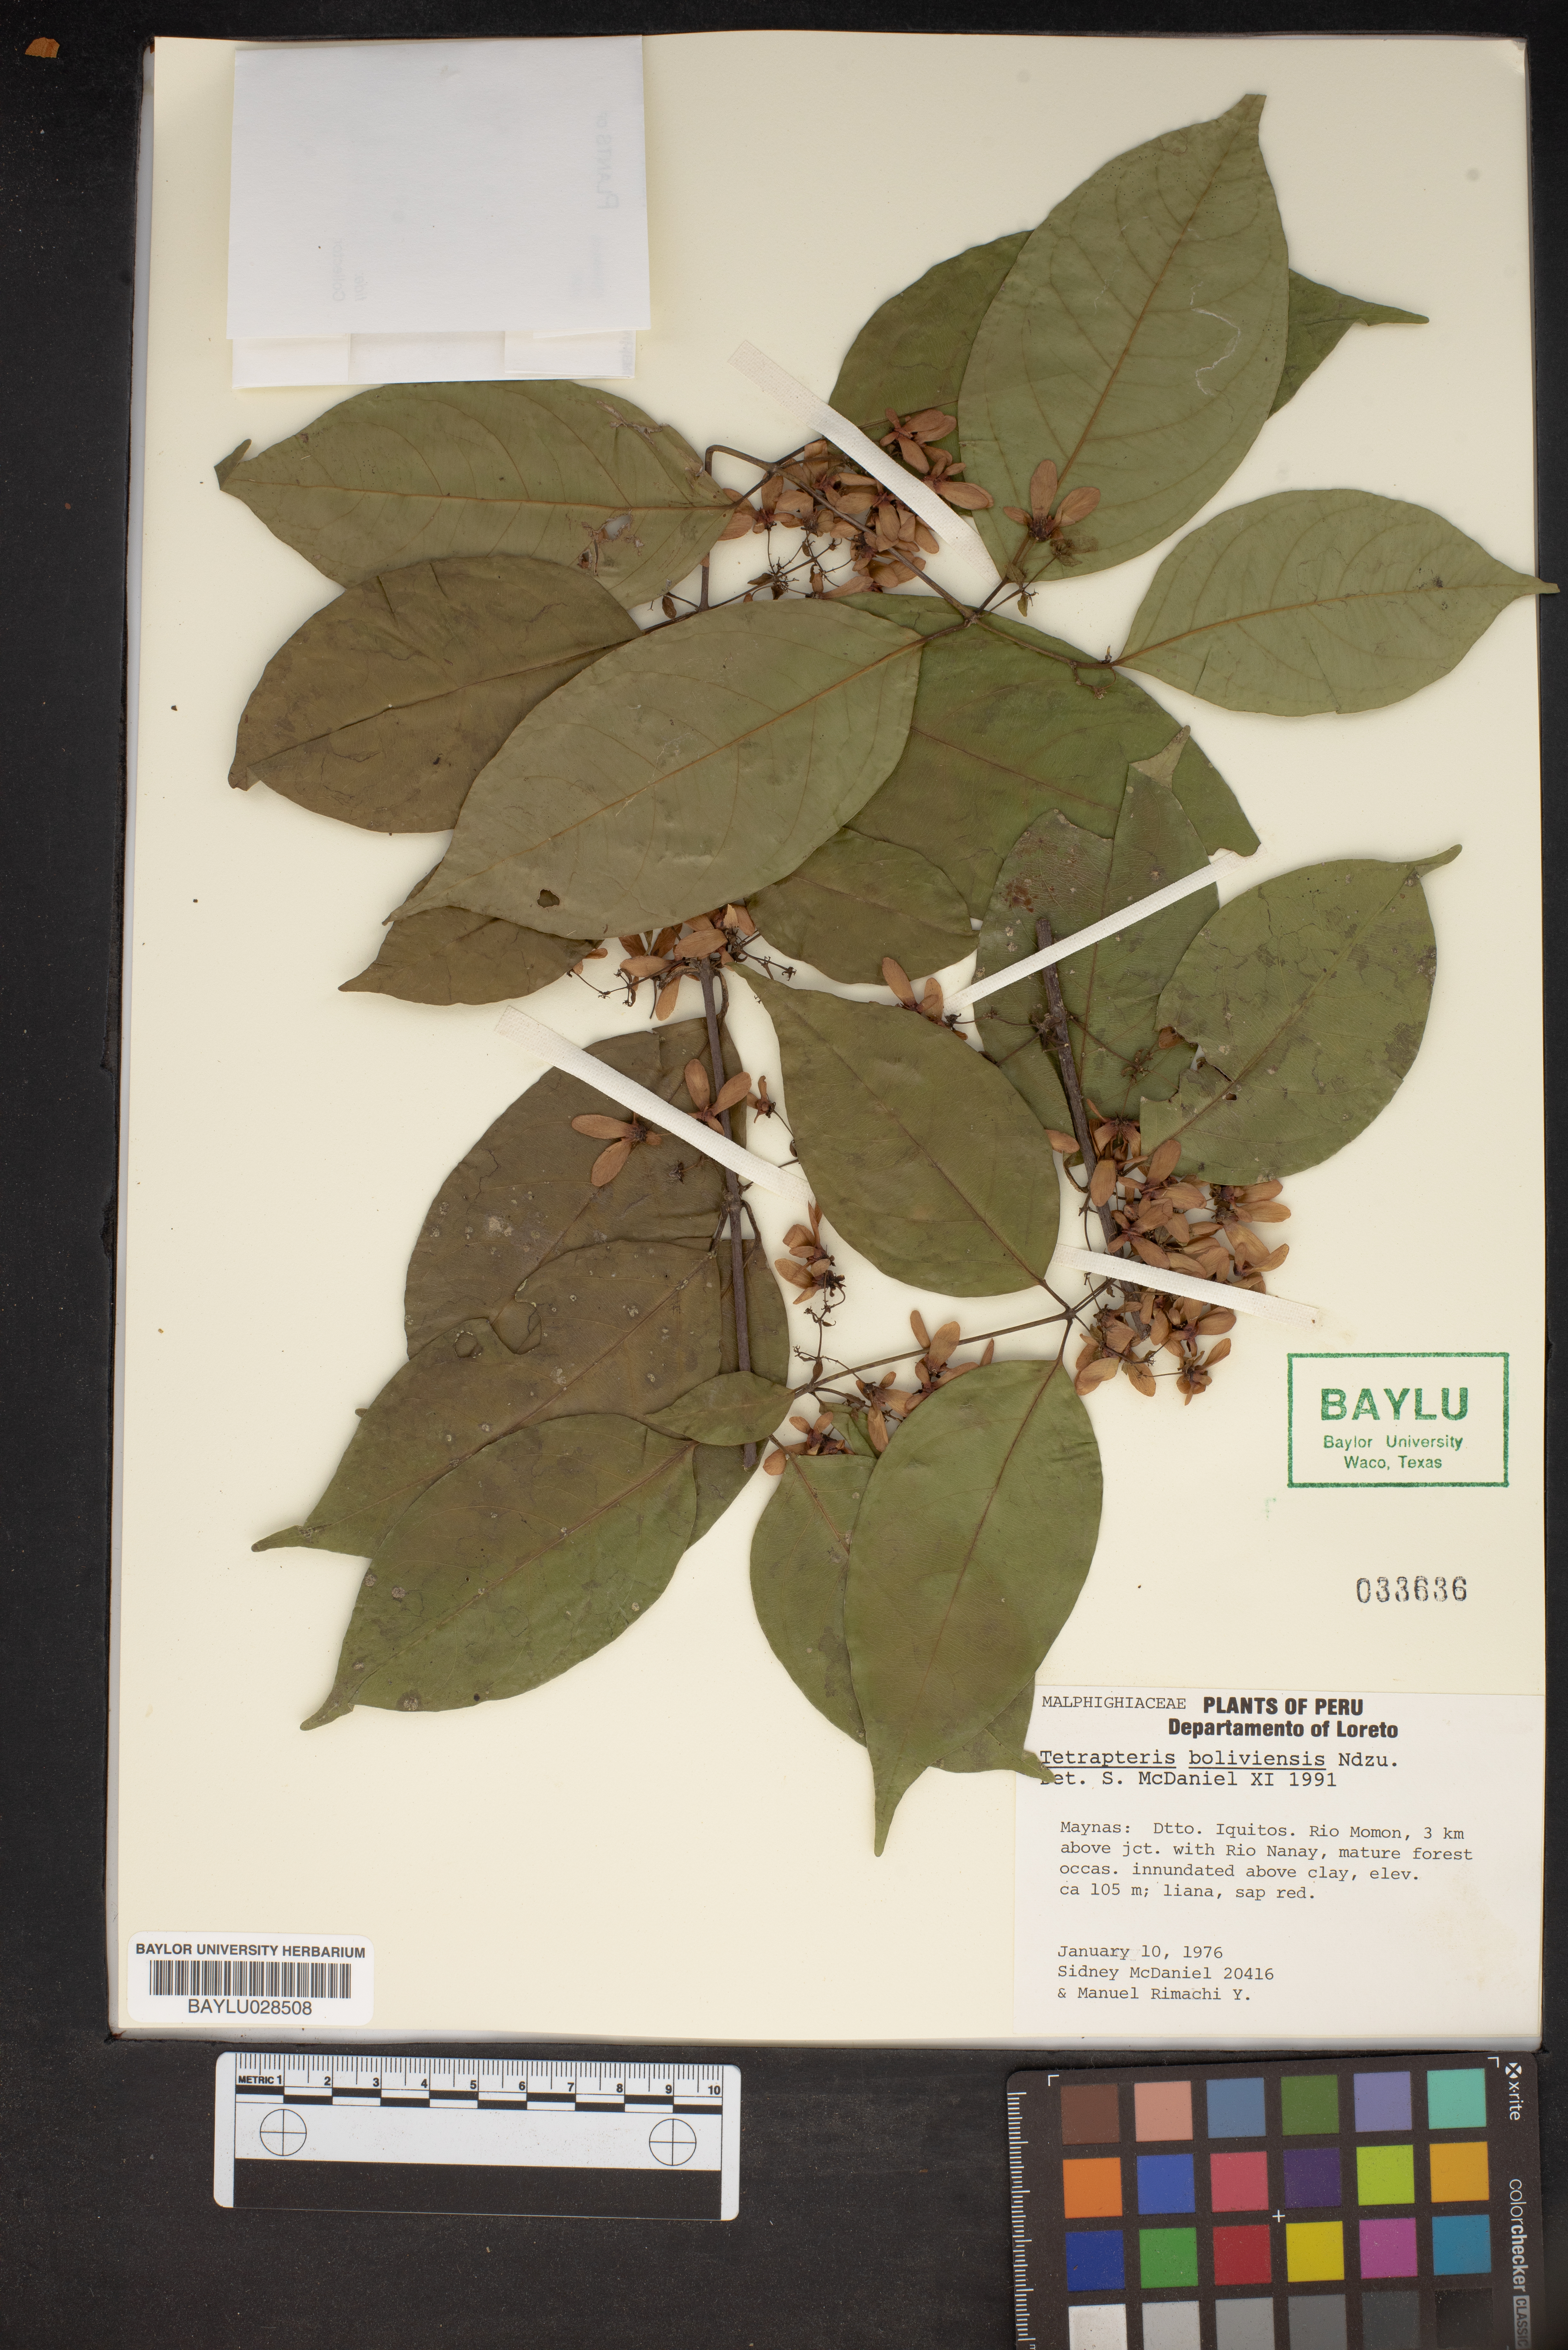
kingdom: Plantae
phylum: Tracheophyta
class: Magnoliopsida
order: Malpighiales
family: Malpighiaceae
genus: Glicophyllum
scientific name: Glicophyllum stylopterum
